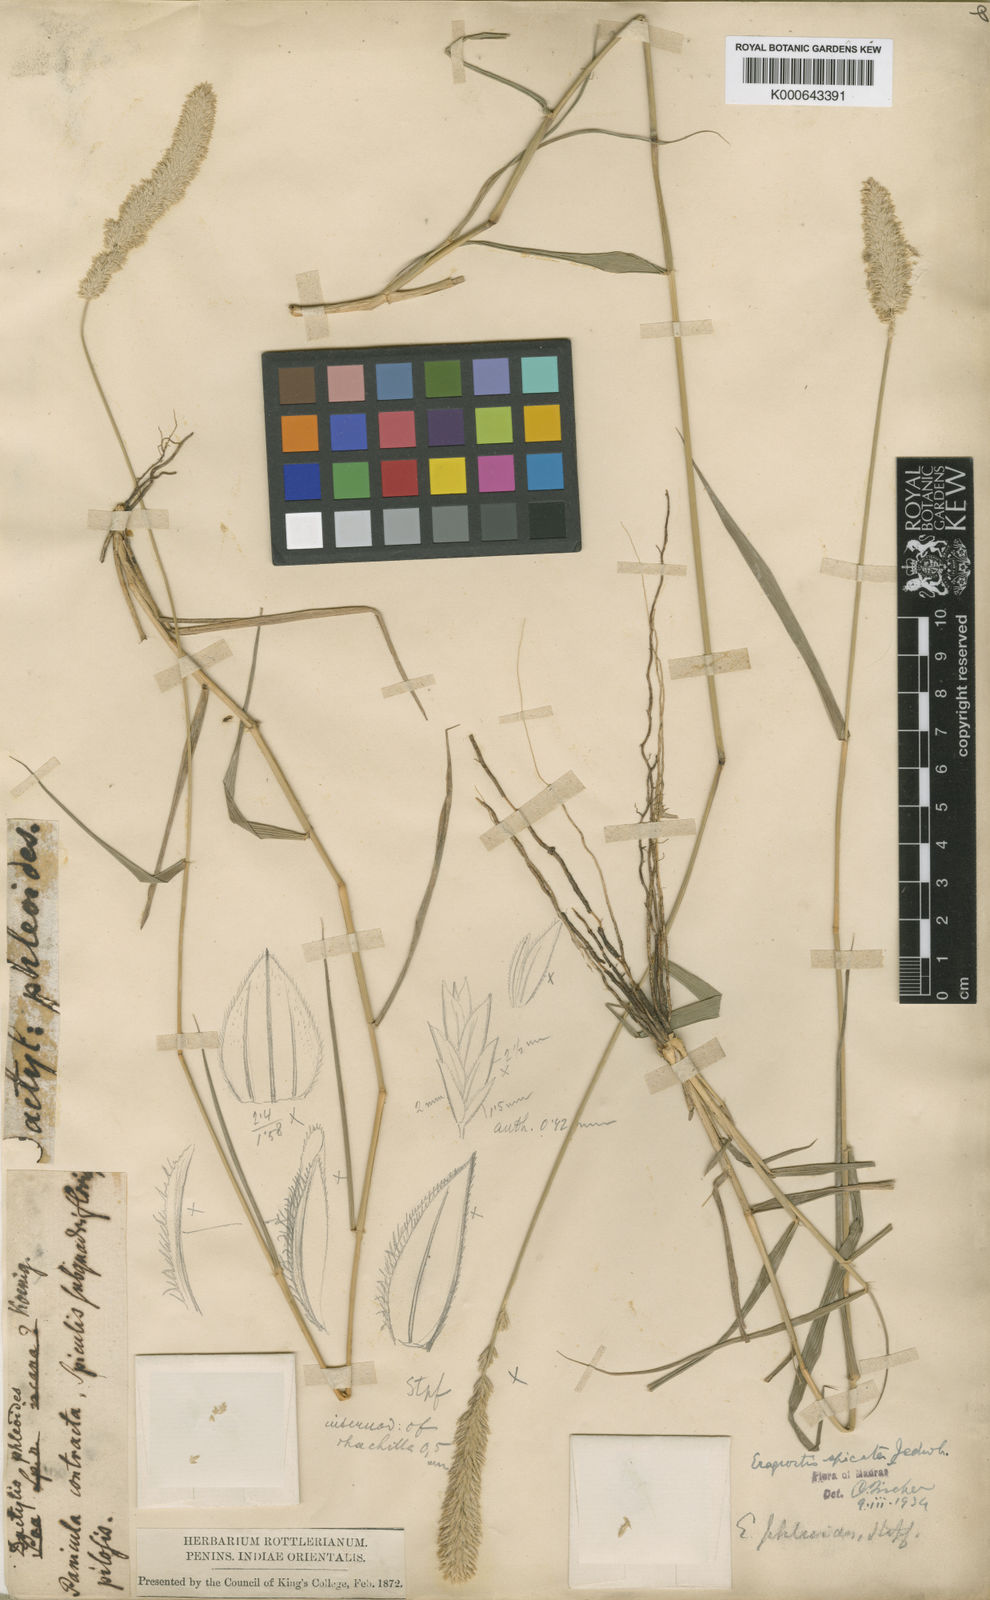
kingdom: Plantae
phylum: Tracheophyta
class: Liliopsida
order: Poales
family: Poaceae
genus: Eragrostis
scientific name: Eragrostis deccanensis
